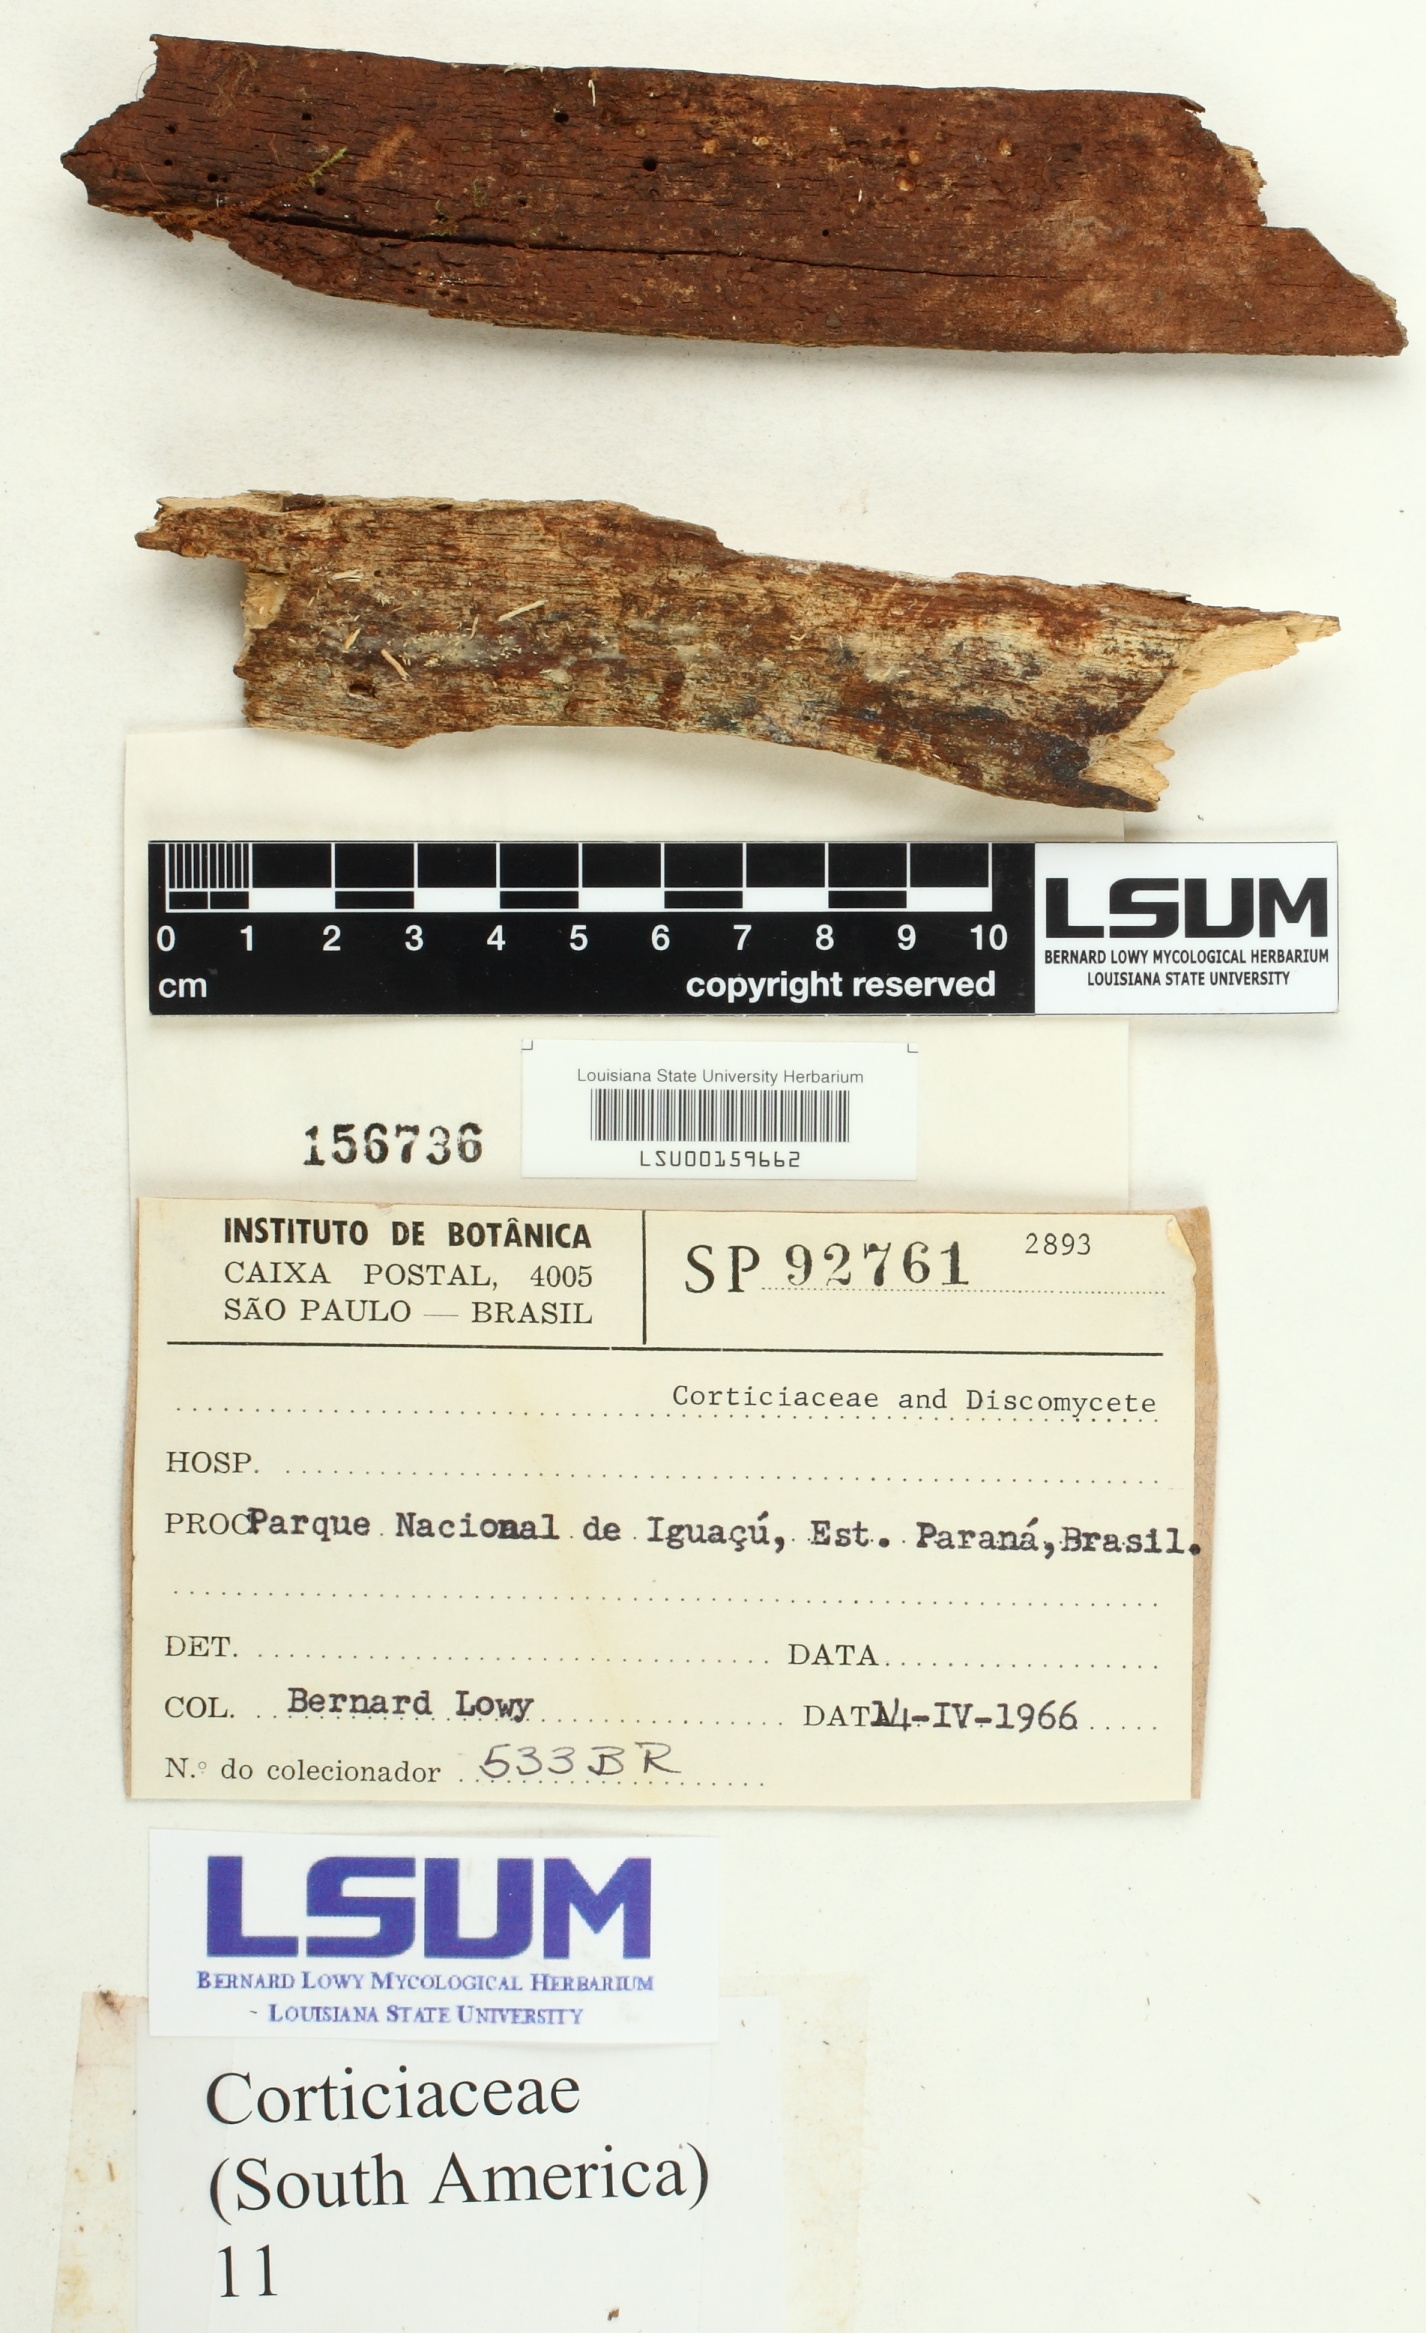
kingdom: Fungi
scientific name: Fungi
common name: Fungi
